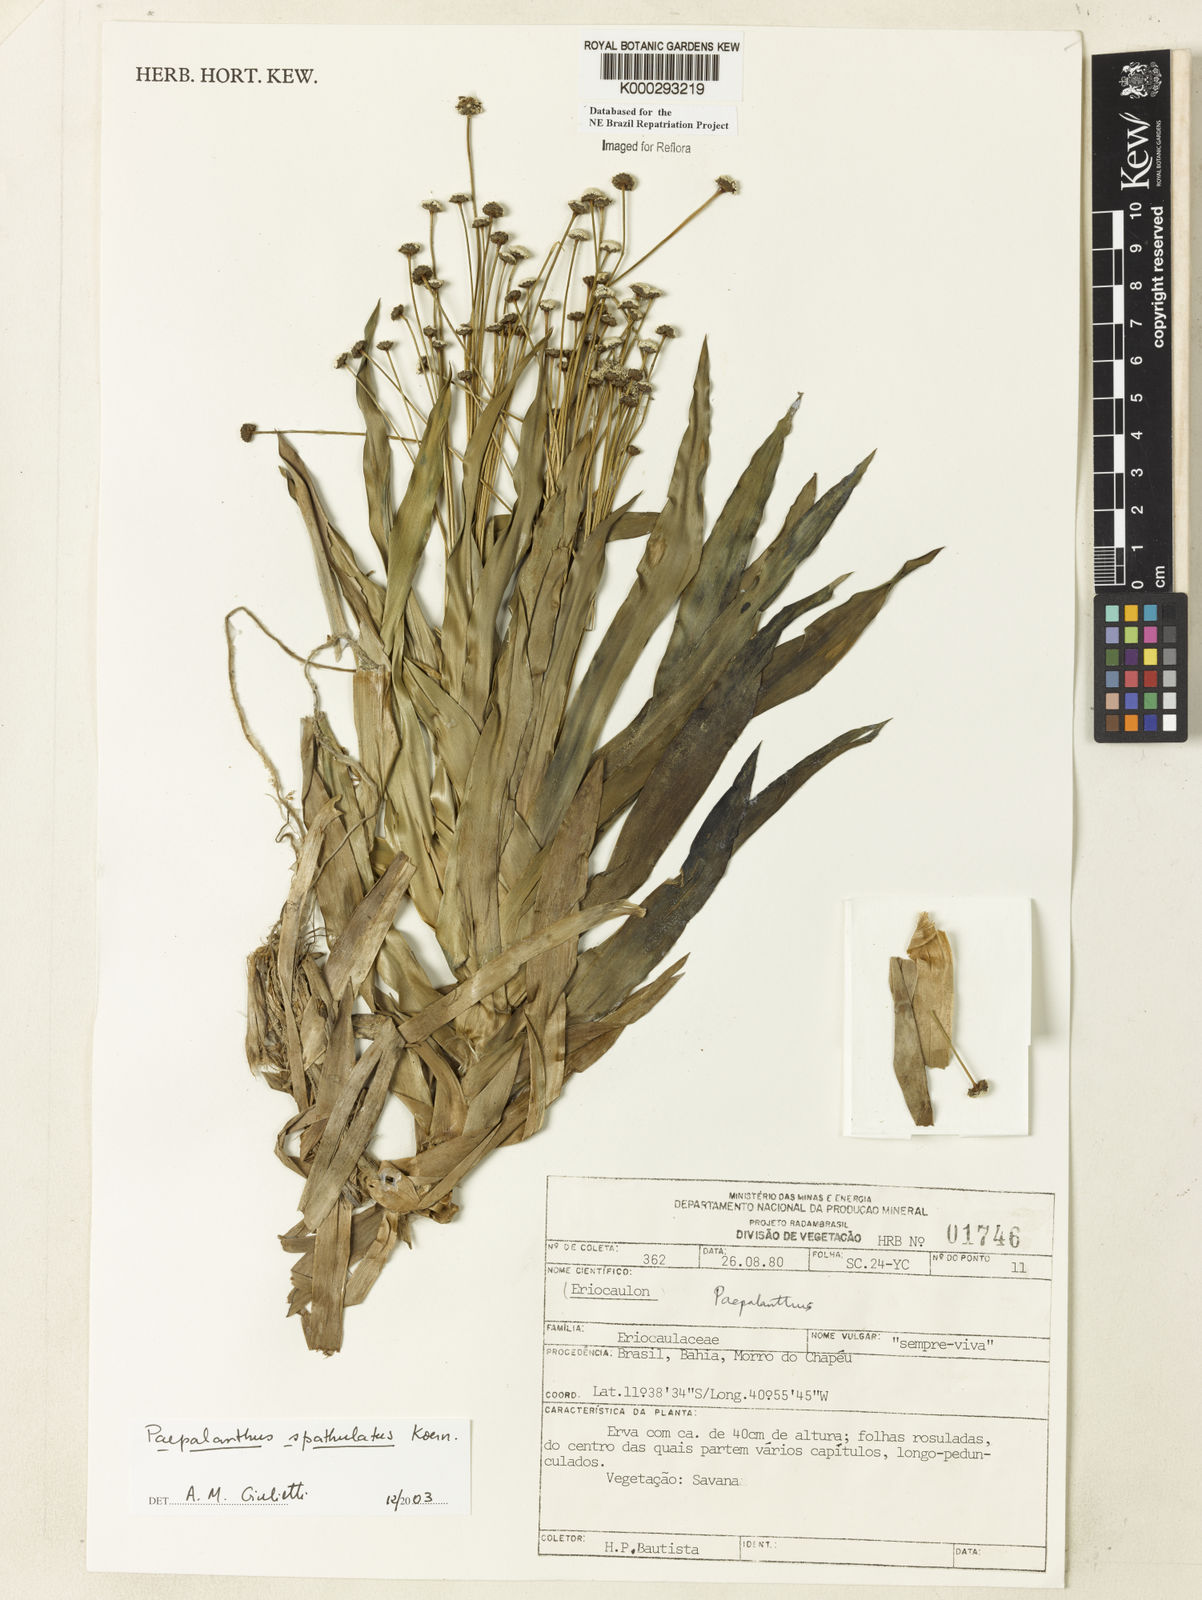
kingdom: Plantae
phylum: Tracheophyta
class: Liliopsida
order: Poales
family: Eriocaulaceae
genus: Paepalanthus
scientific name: Paepalanthus
